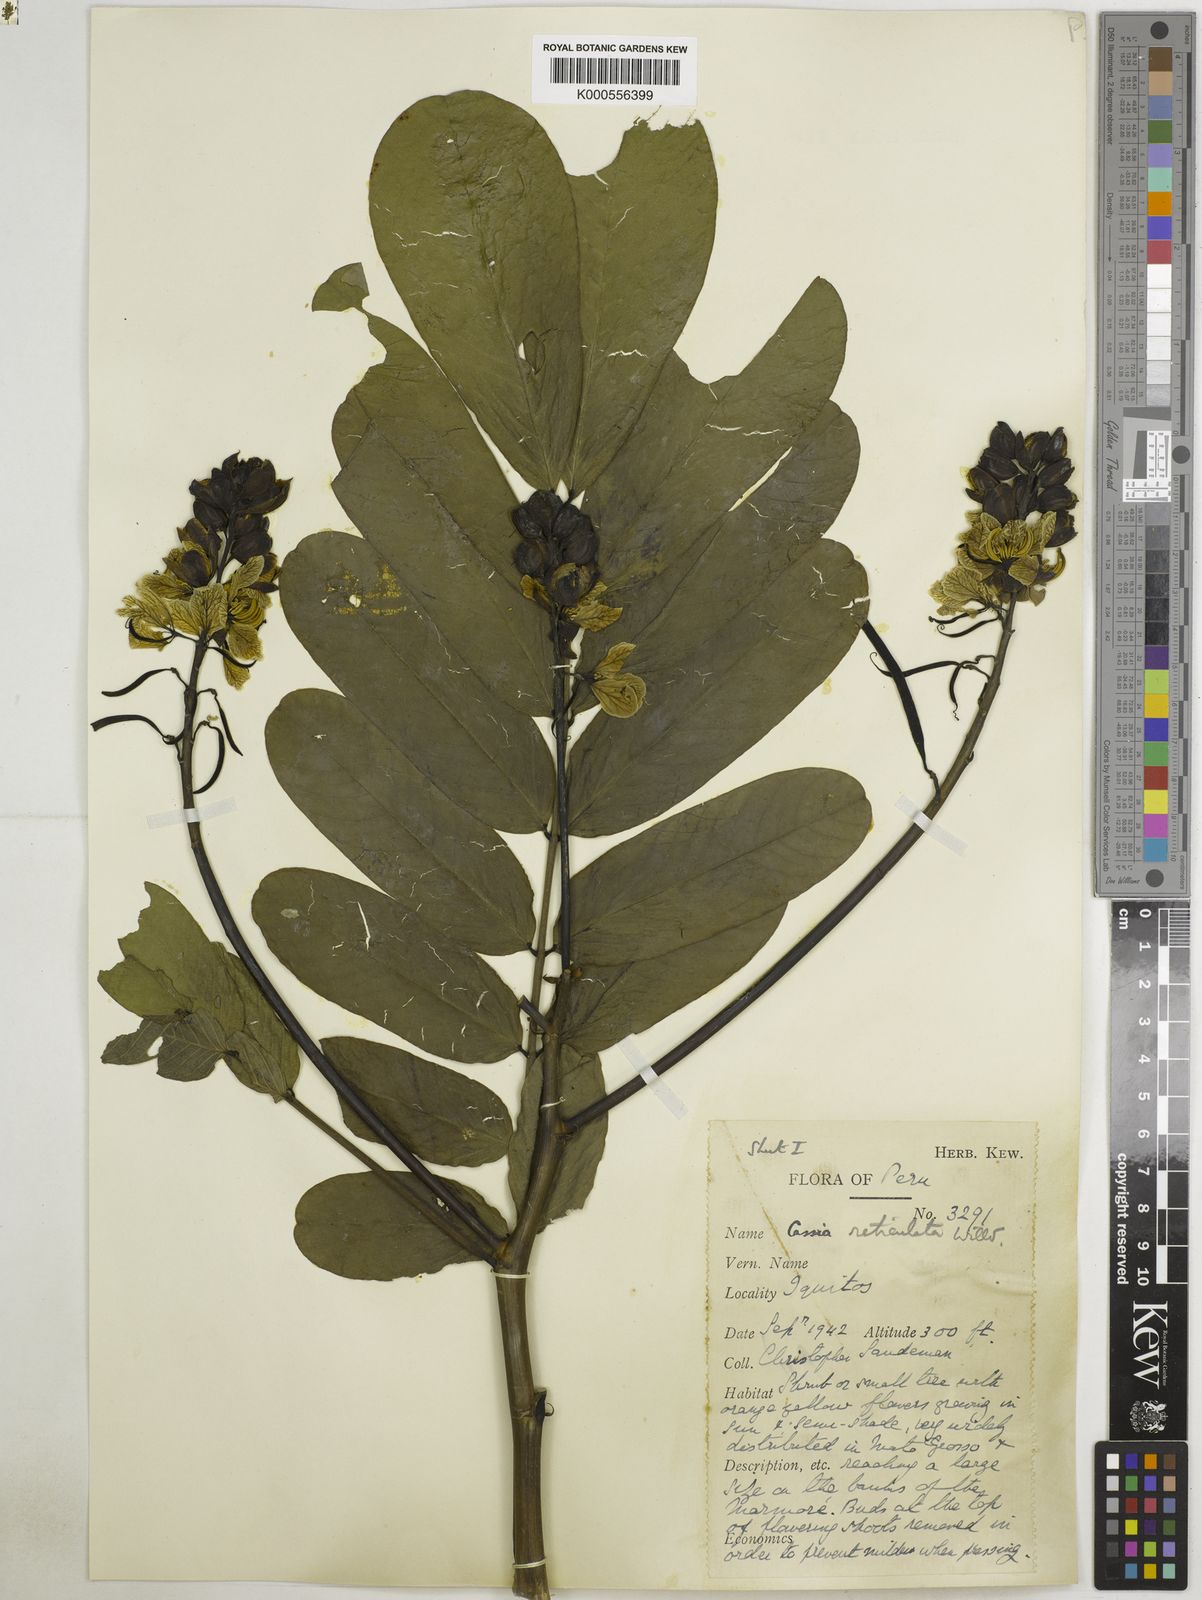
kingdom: Plantae
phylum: Tracheophyta
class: Magnoliopsida
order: Fabales
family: Fabaceae
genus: Senna
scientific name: Senna reticulata
